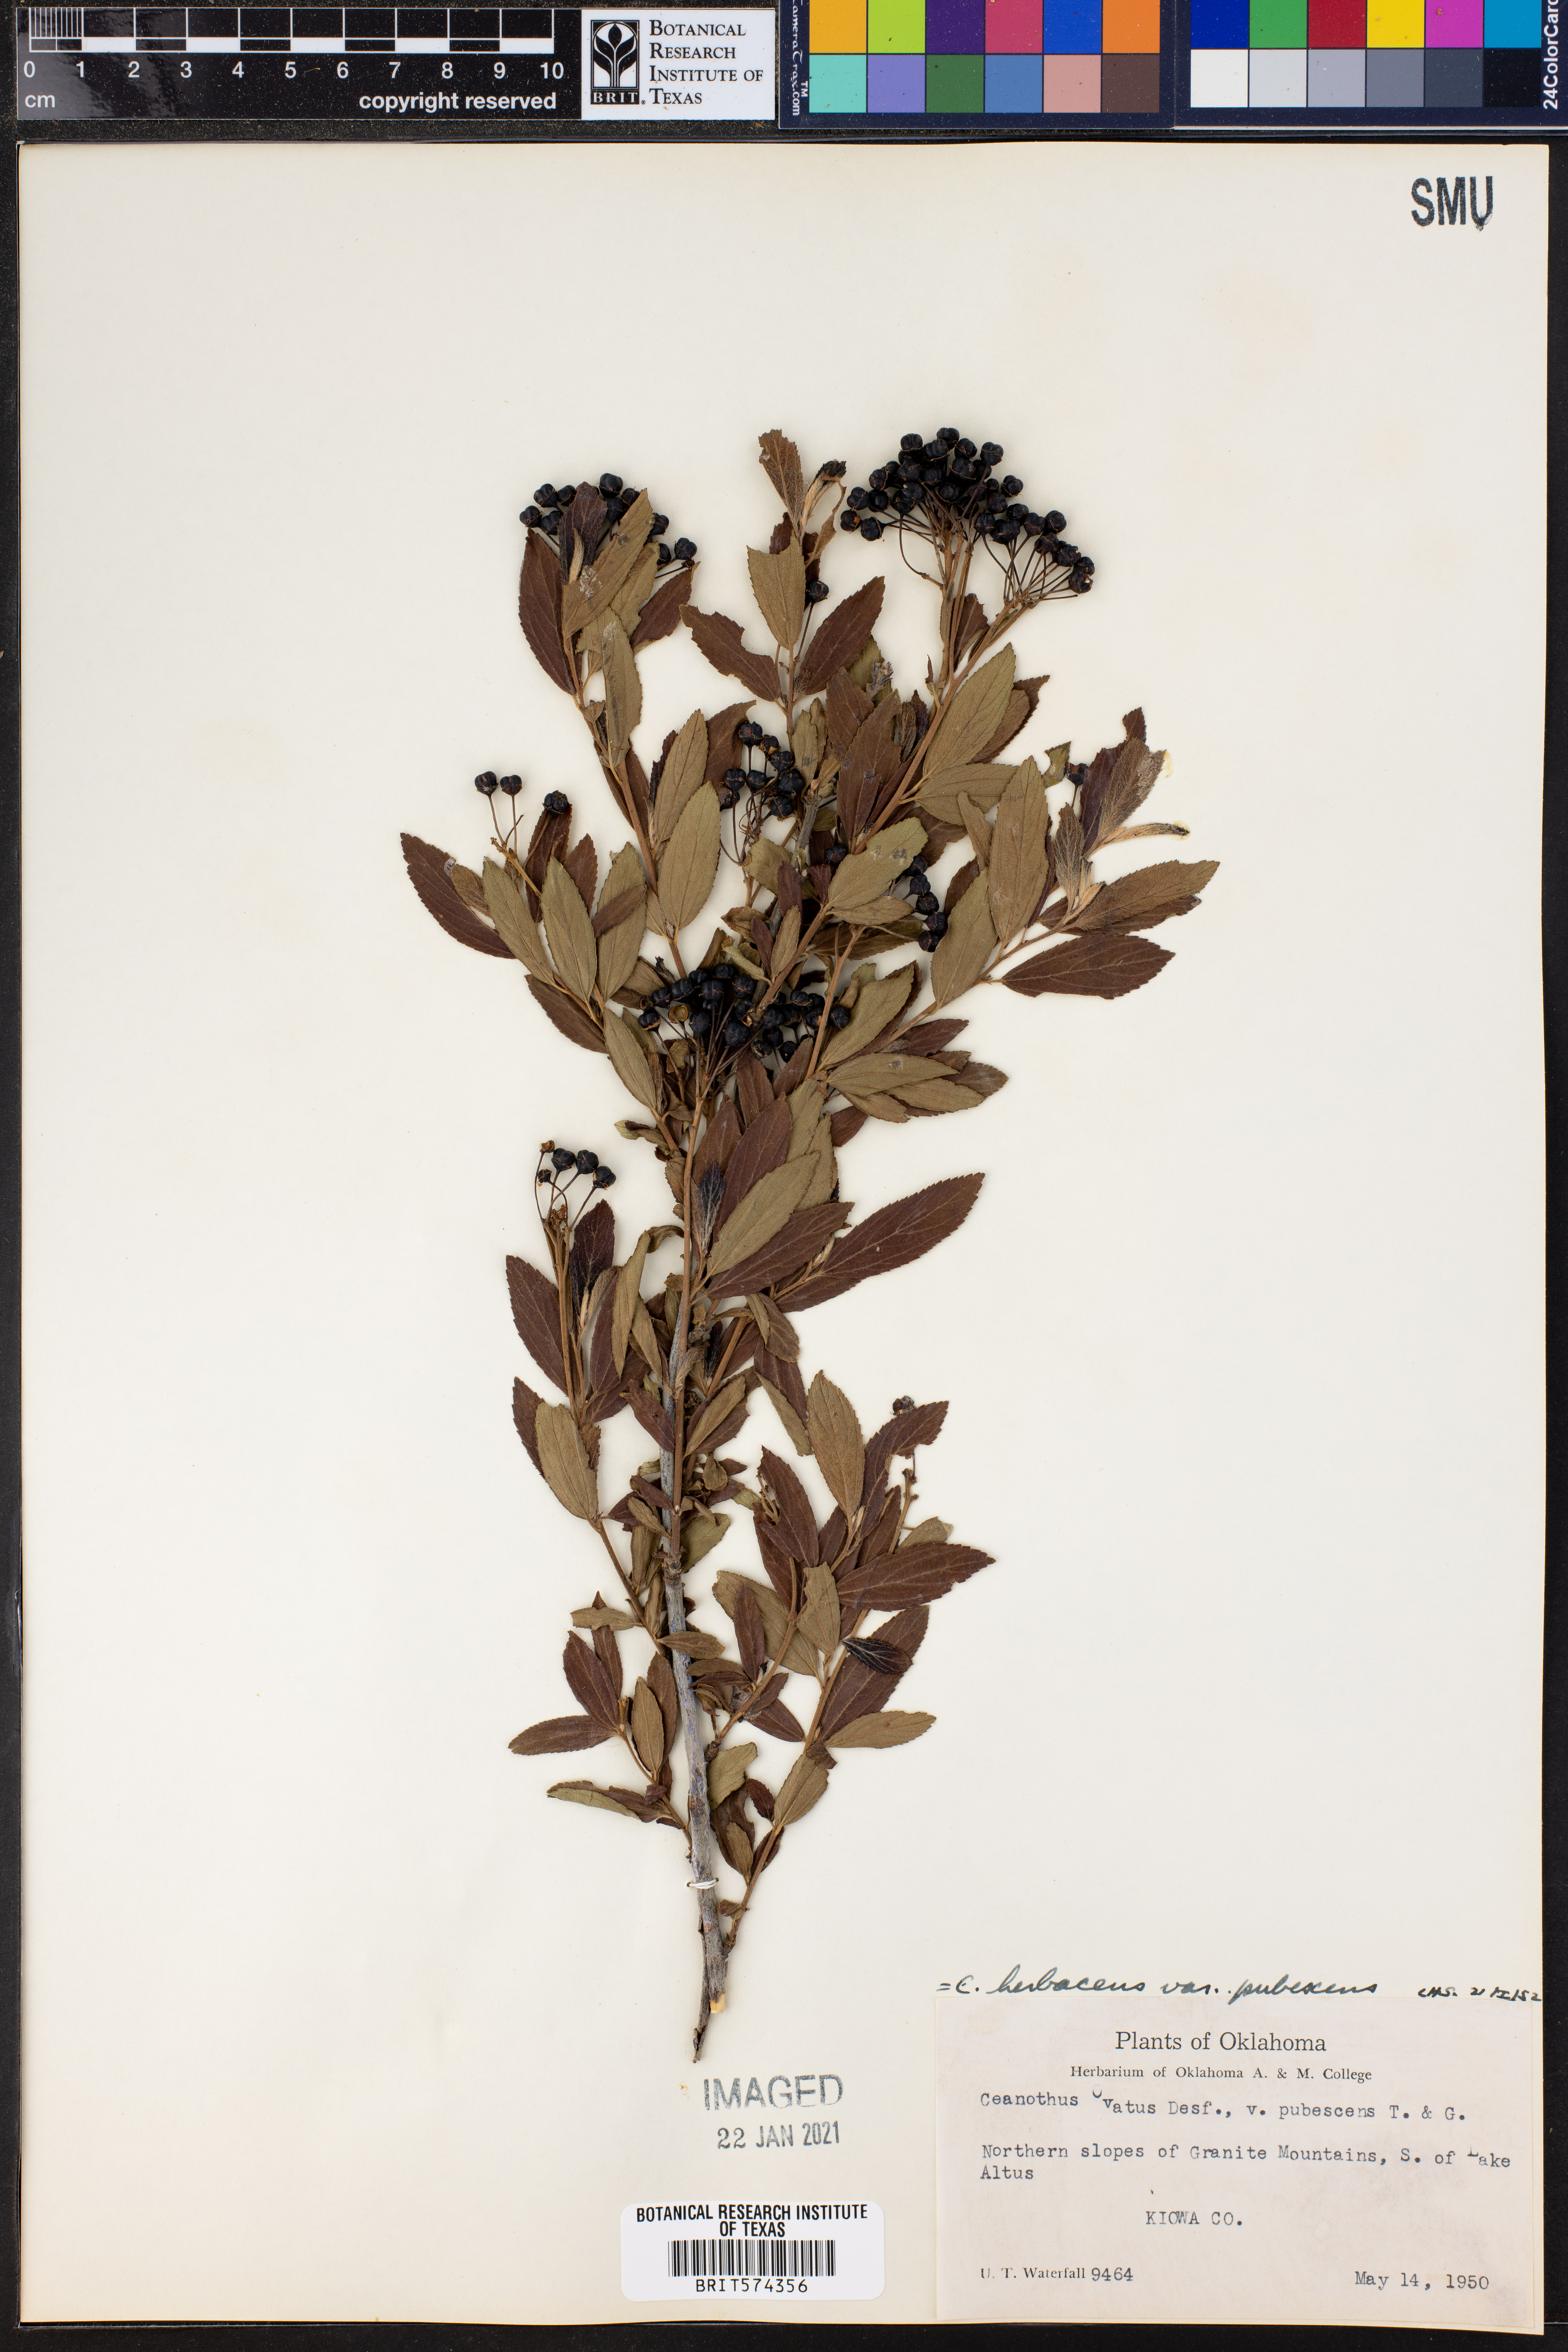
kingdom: Plantae
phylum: Tracheophyta
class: Magnoliopsida
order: Rosales
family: Rhamnaceae
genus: Ceanothus
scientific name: Ceanothus herbaceus
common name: Inland ceanothus
